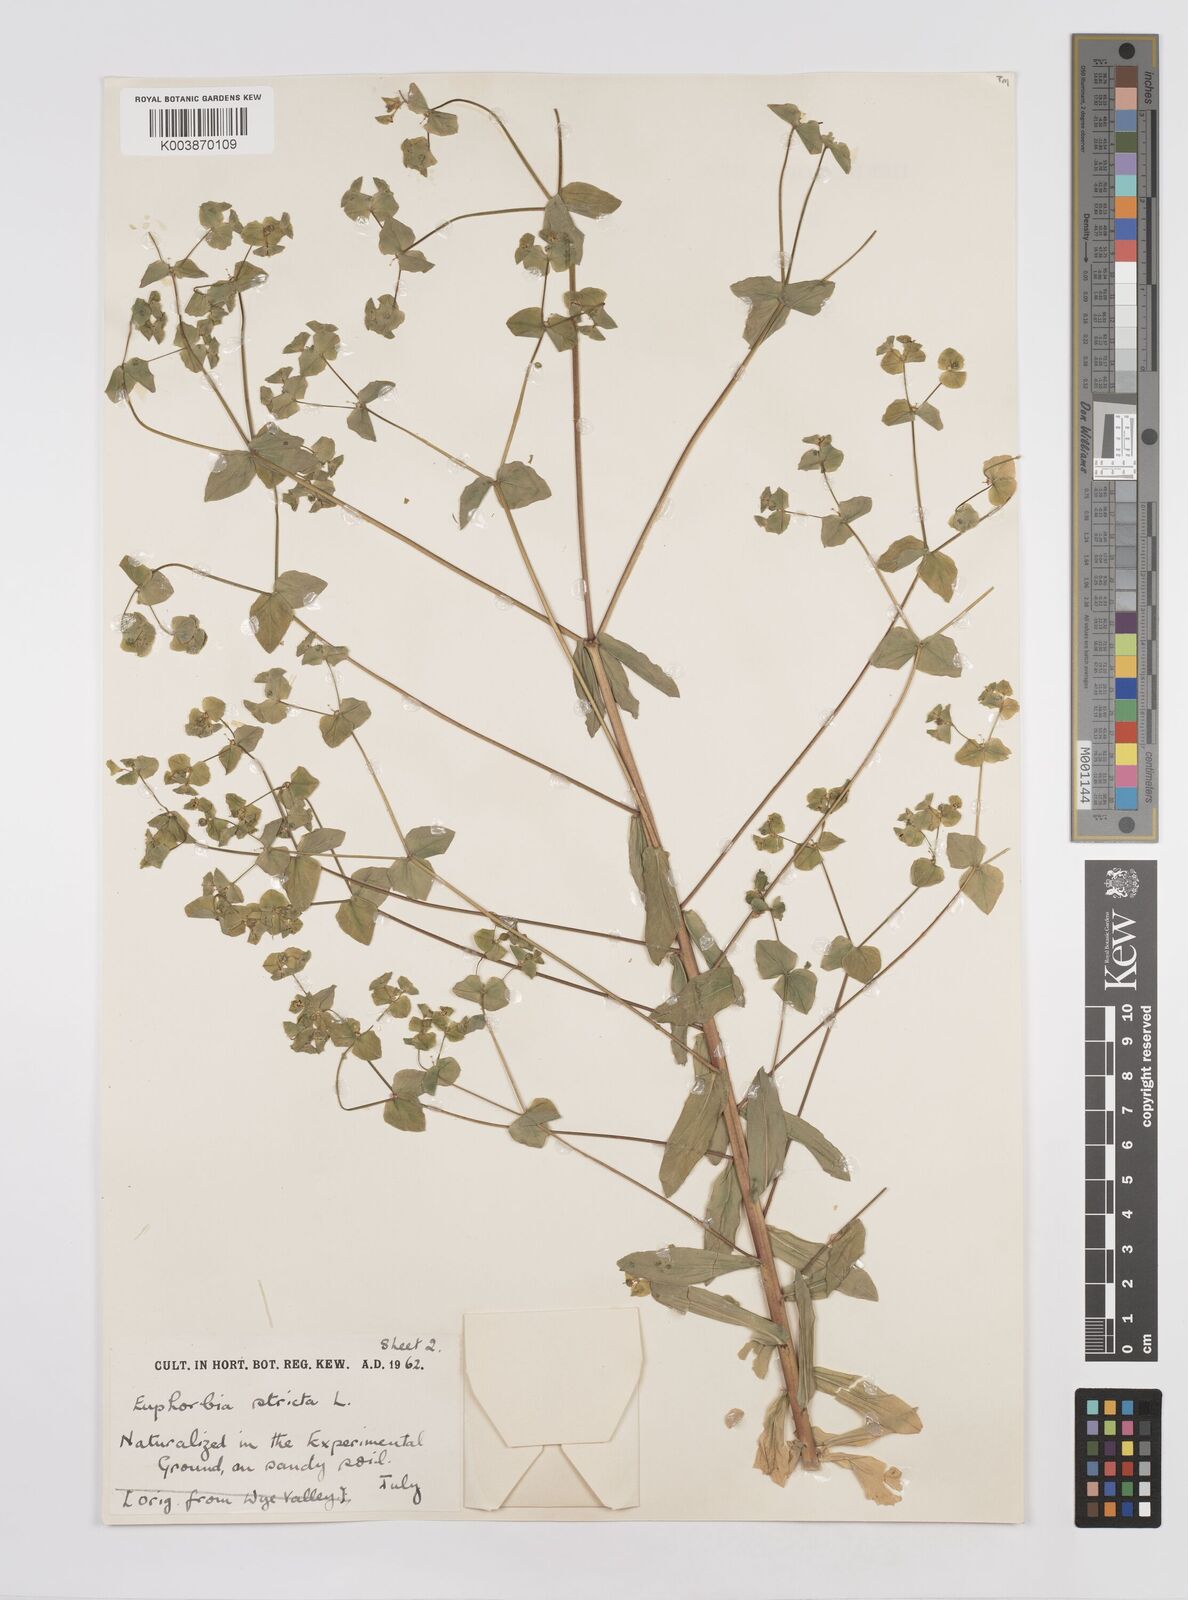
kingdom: Plantae
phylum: Tracheophyta
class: Magnoliopsida
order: Malpighiales
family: Euphorbiaceae
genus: Euphorbia
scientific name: Euphorbia stricta
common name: Upright spurge
